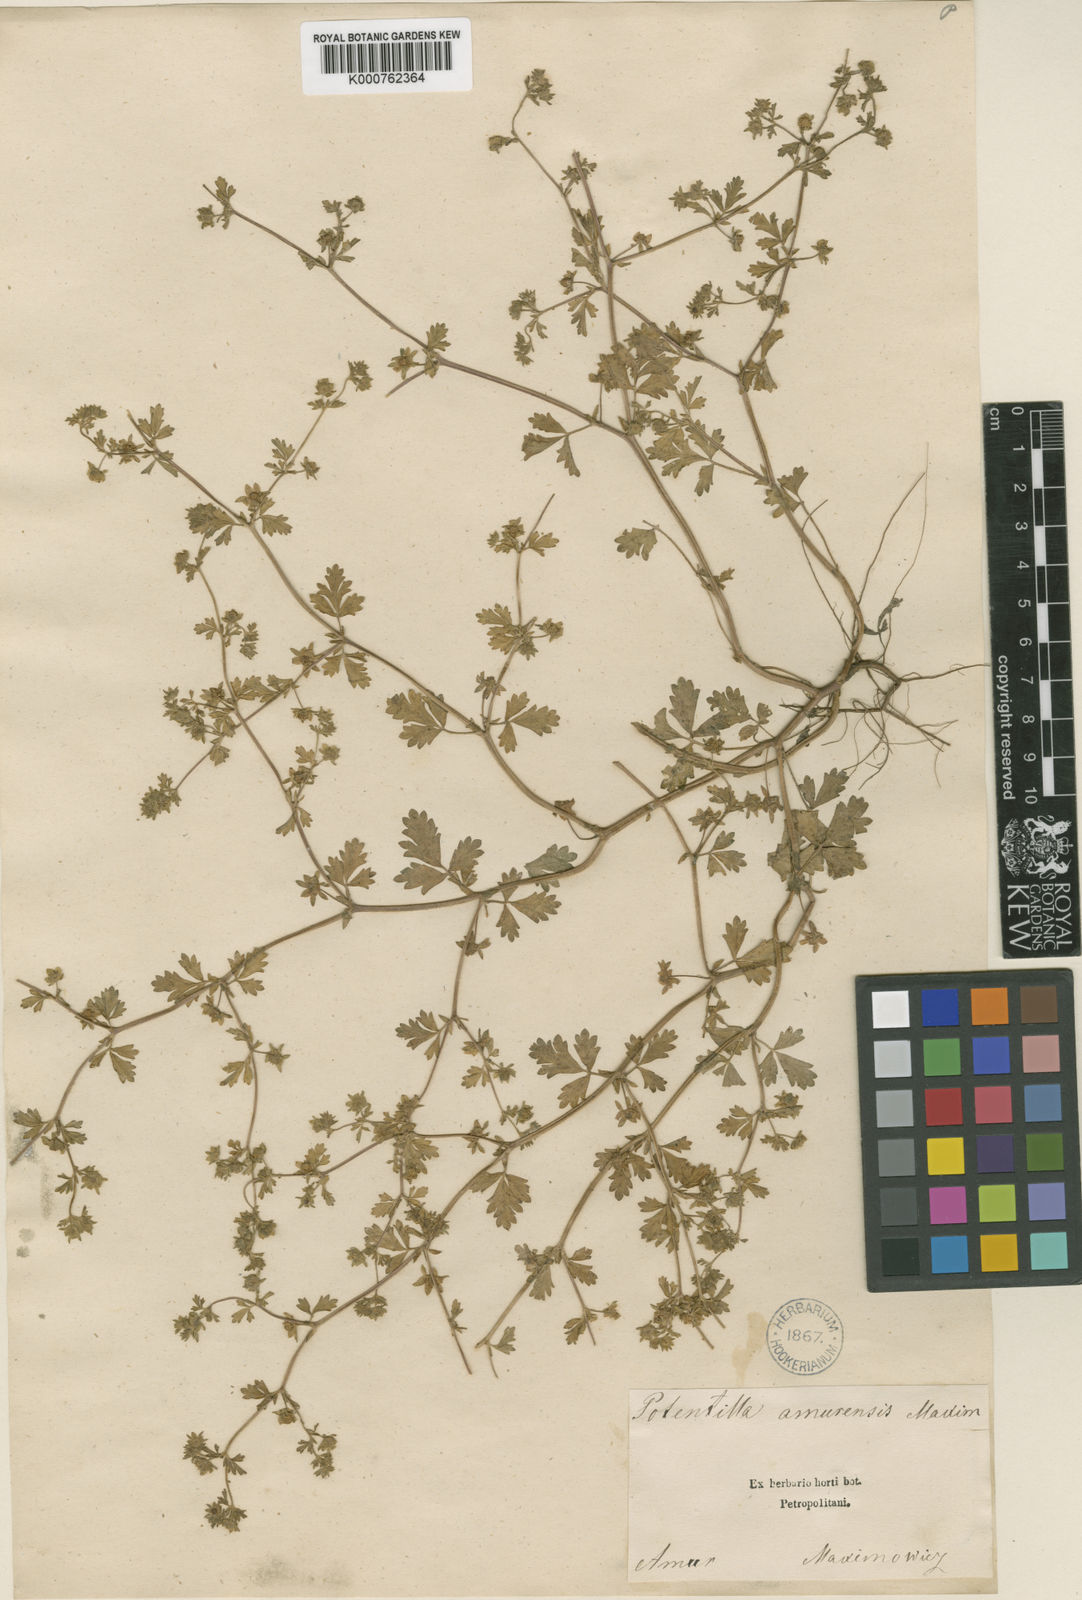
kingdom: Plantae
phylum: Tracheophyta
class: Magnoliopsida
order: Rosales
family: Rosaceae
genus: Potentilla
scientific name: Potentilla supina
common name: Prostrate cinquefoil
